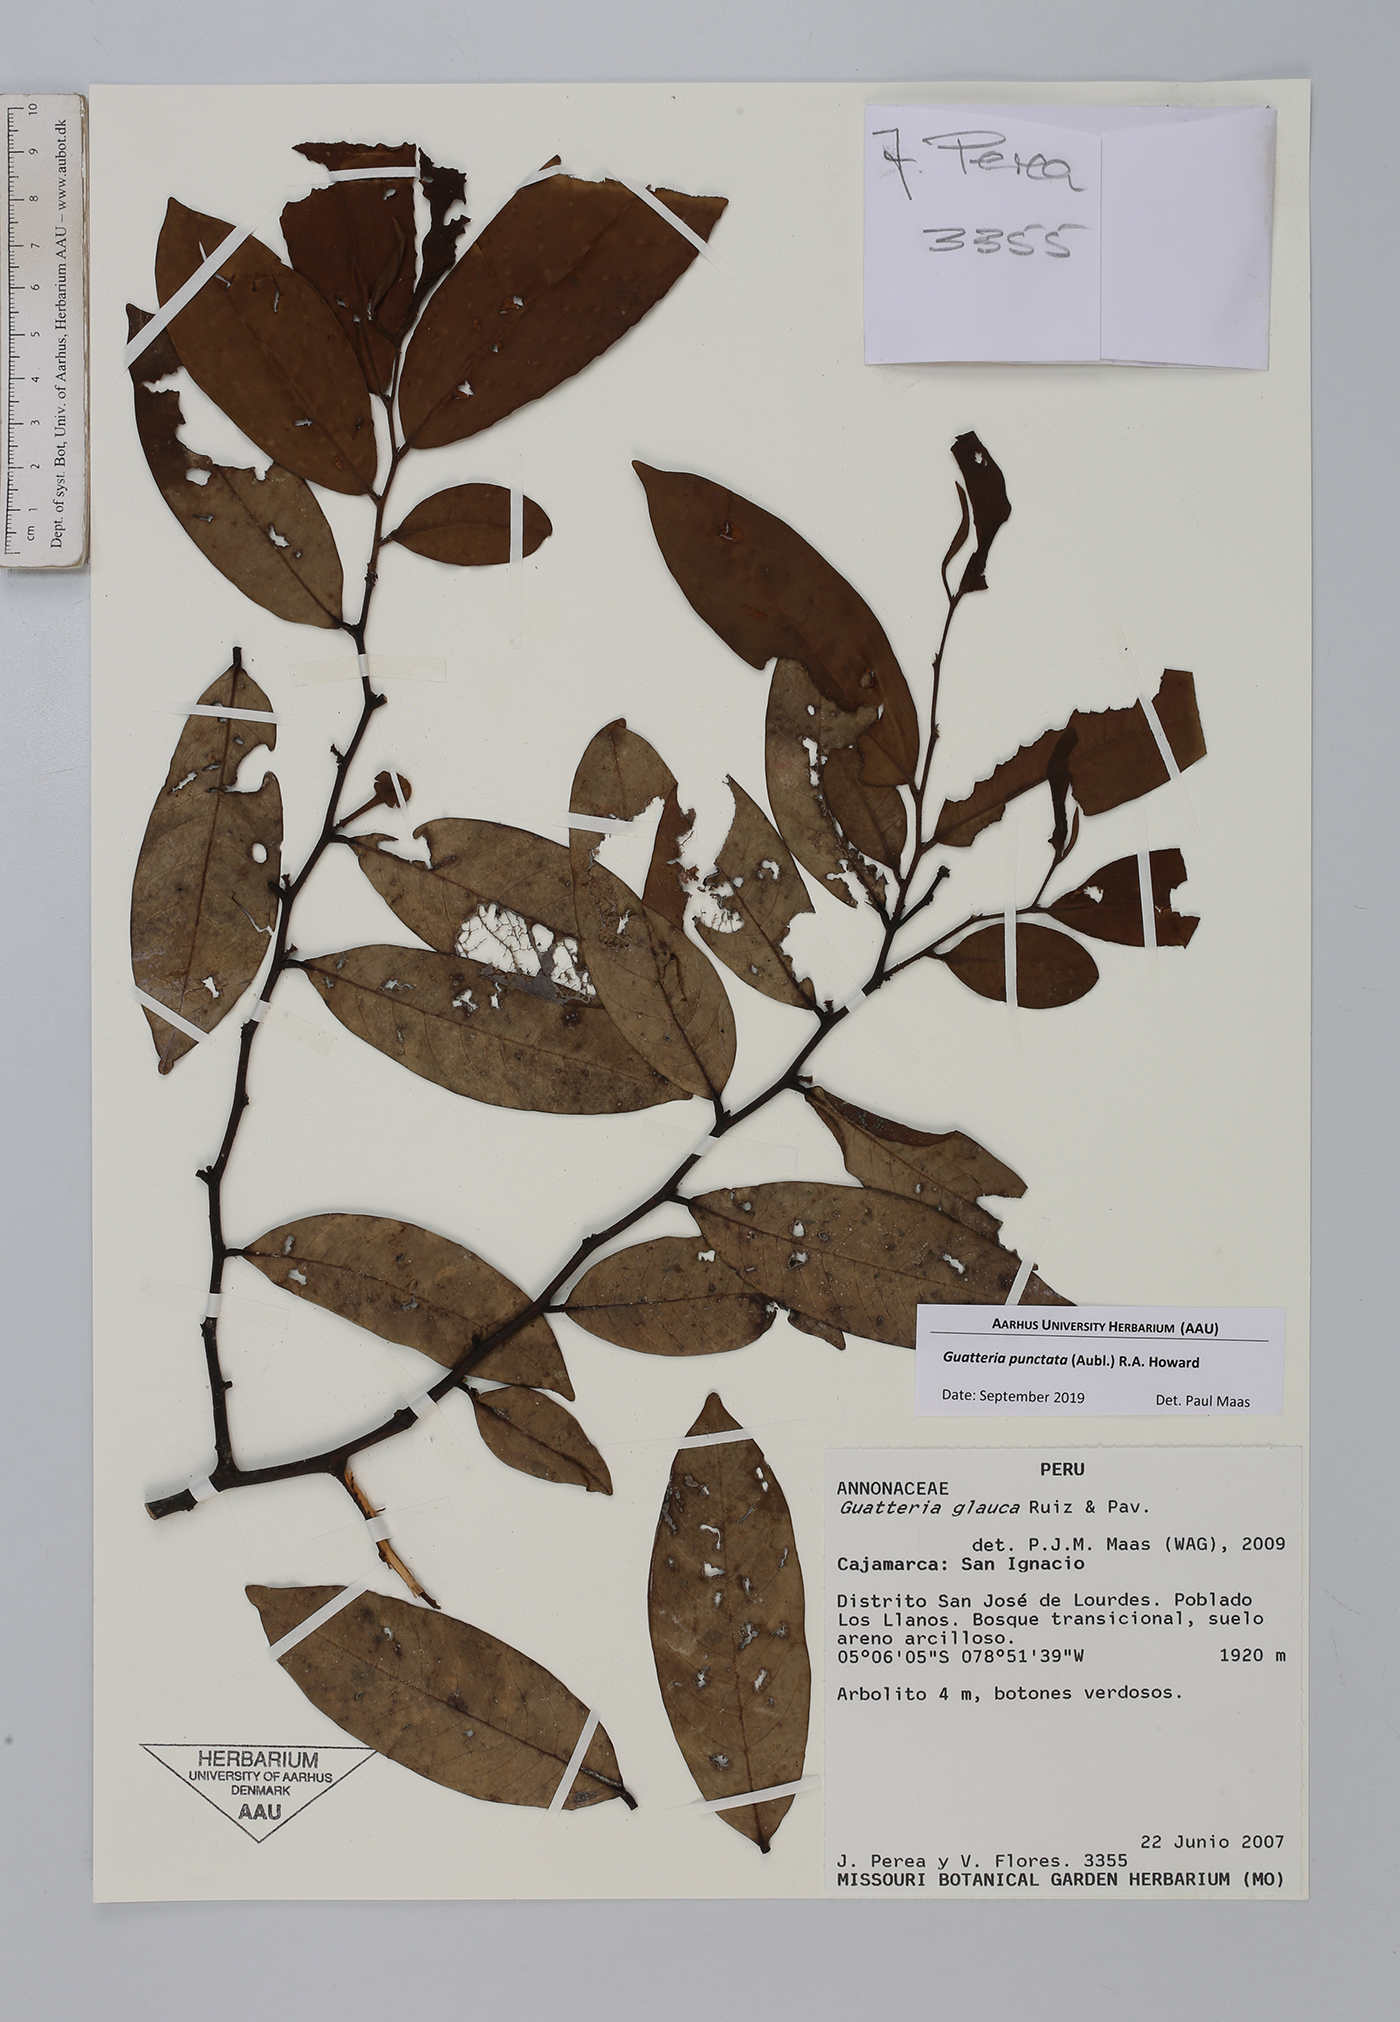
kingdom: Plantae
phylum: Tracheophyta
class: Magnoliopsida
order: Magnoliales
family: Annonaceae
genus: Guatteria
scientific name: Guatteria punctata
